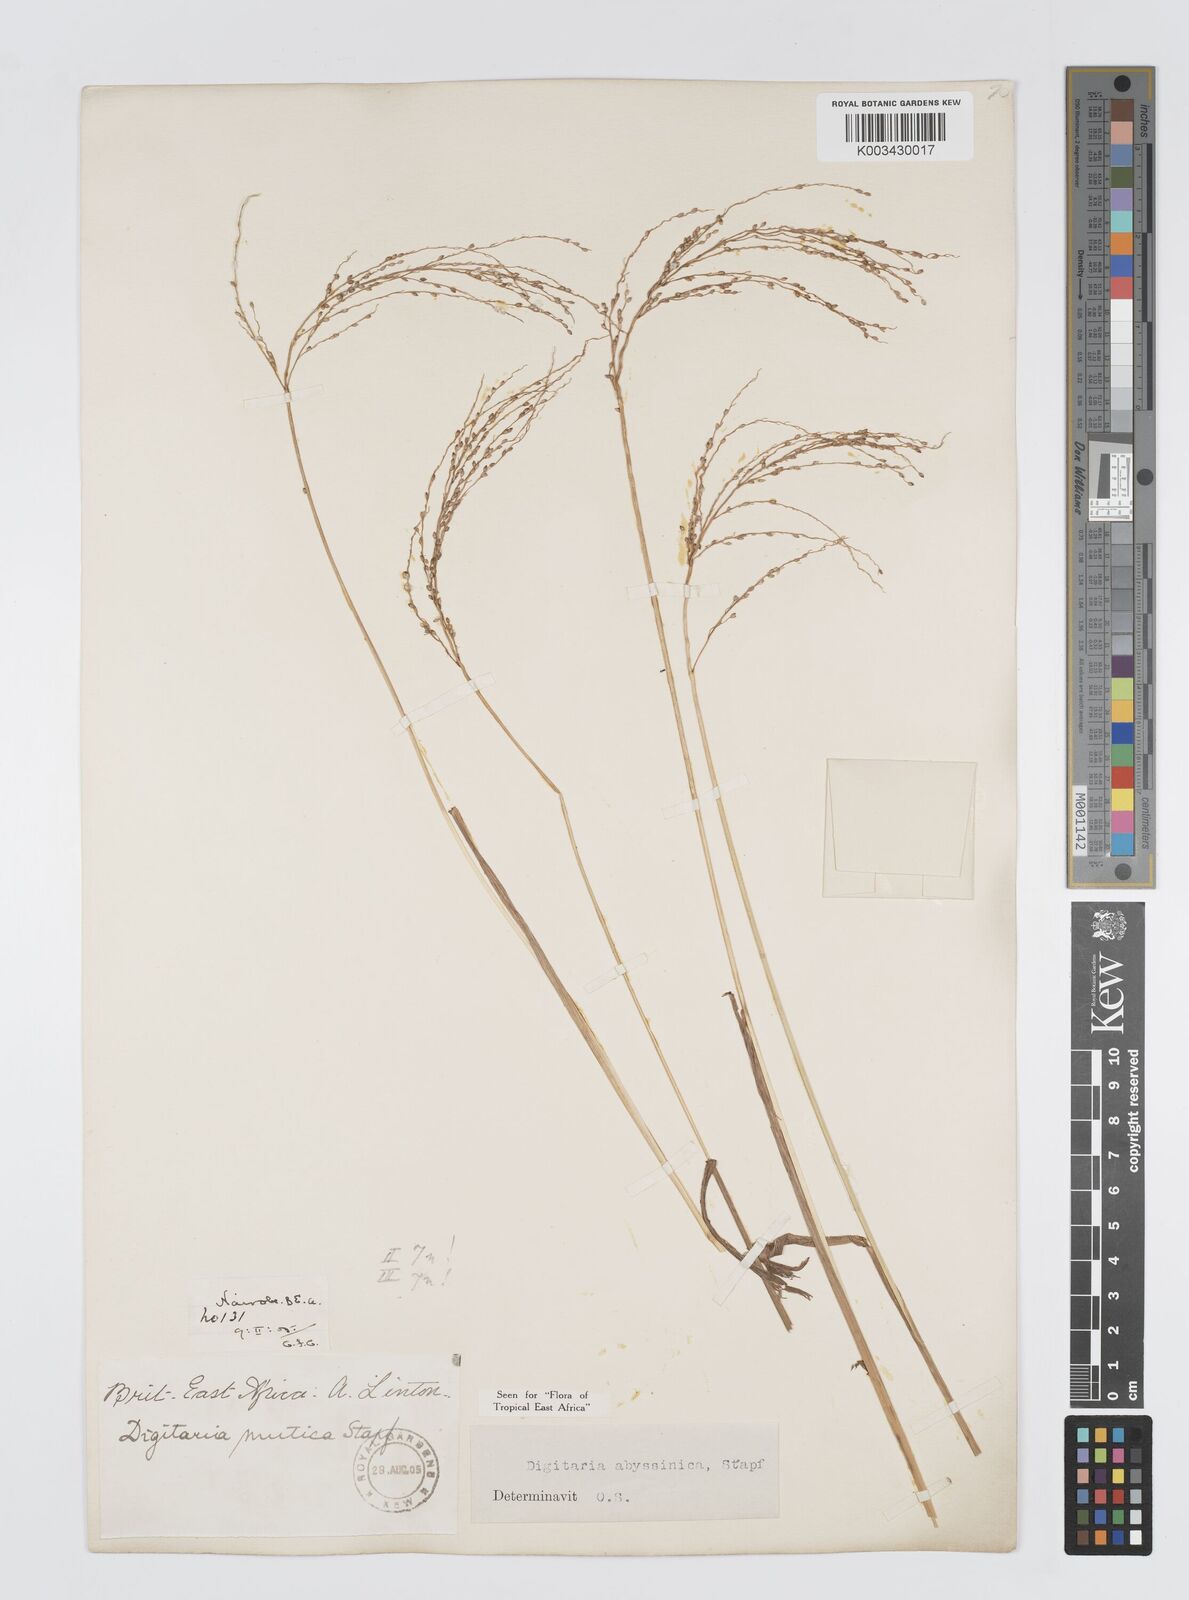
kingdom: Plantae
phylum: Tracheophyta
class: Liliopsida
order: Poales
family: Poaceae
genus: Digitaria
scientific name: Digitaria abyssinica
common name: African couchgrass
